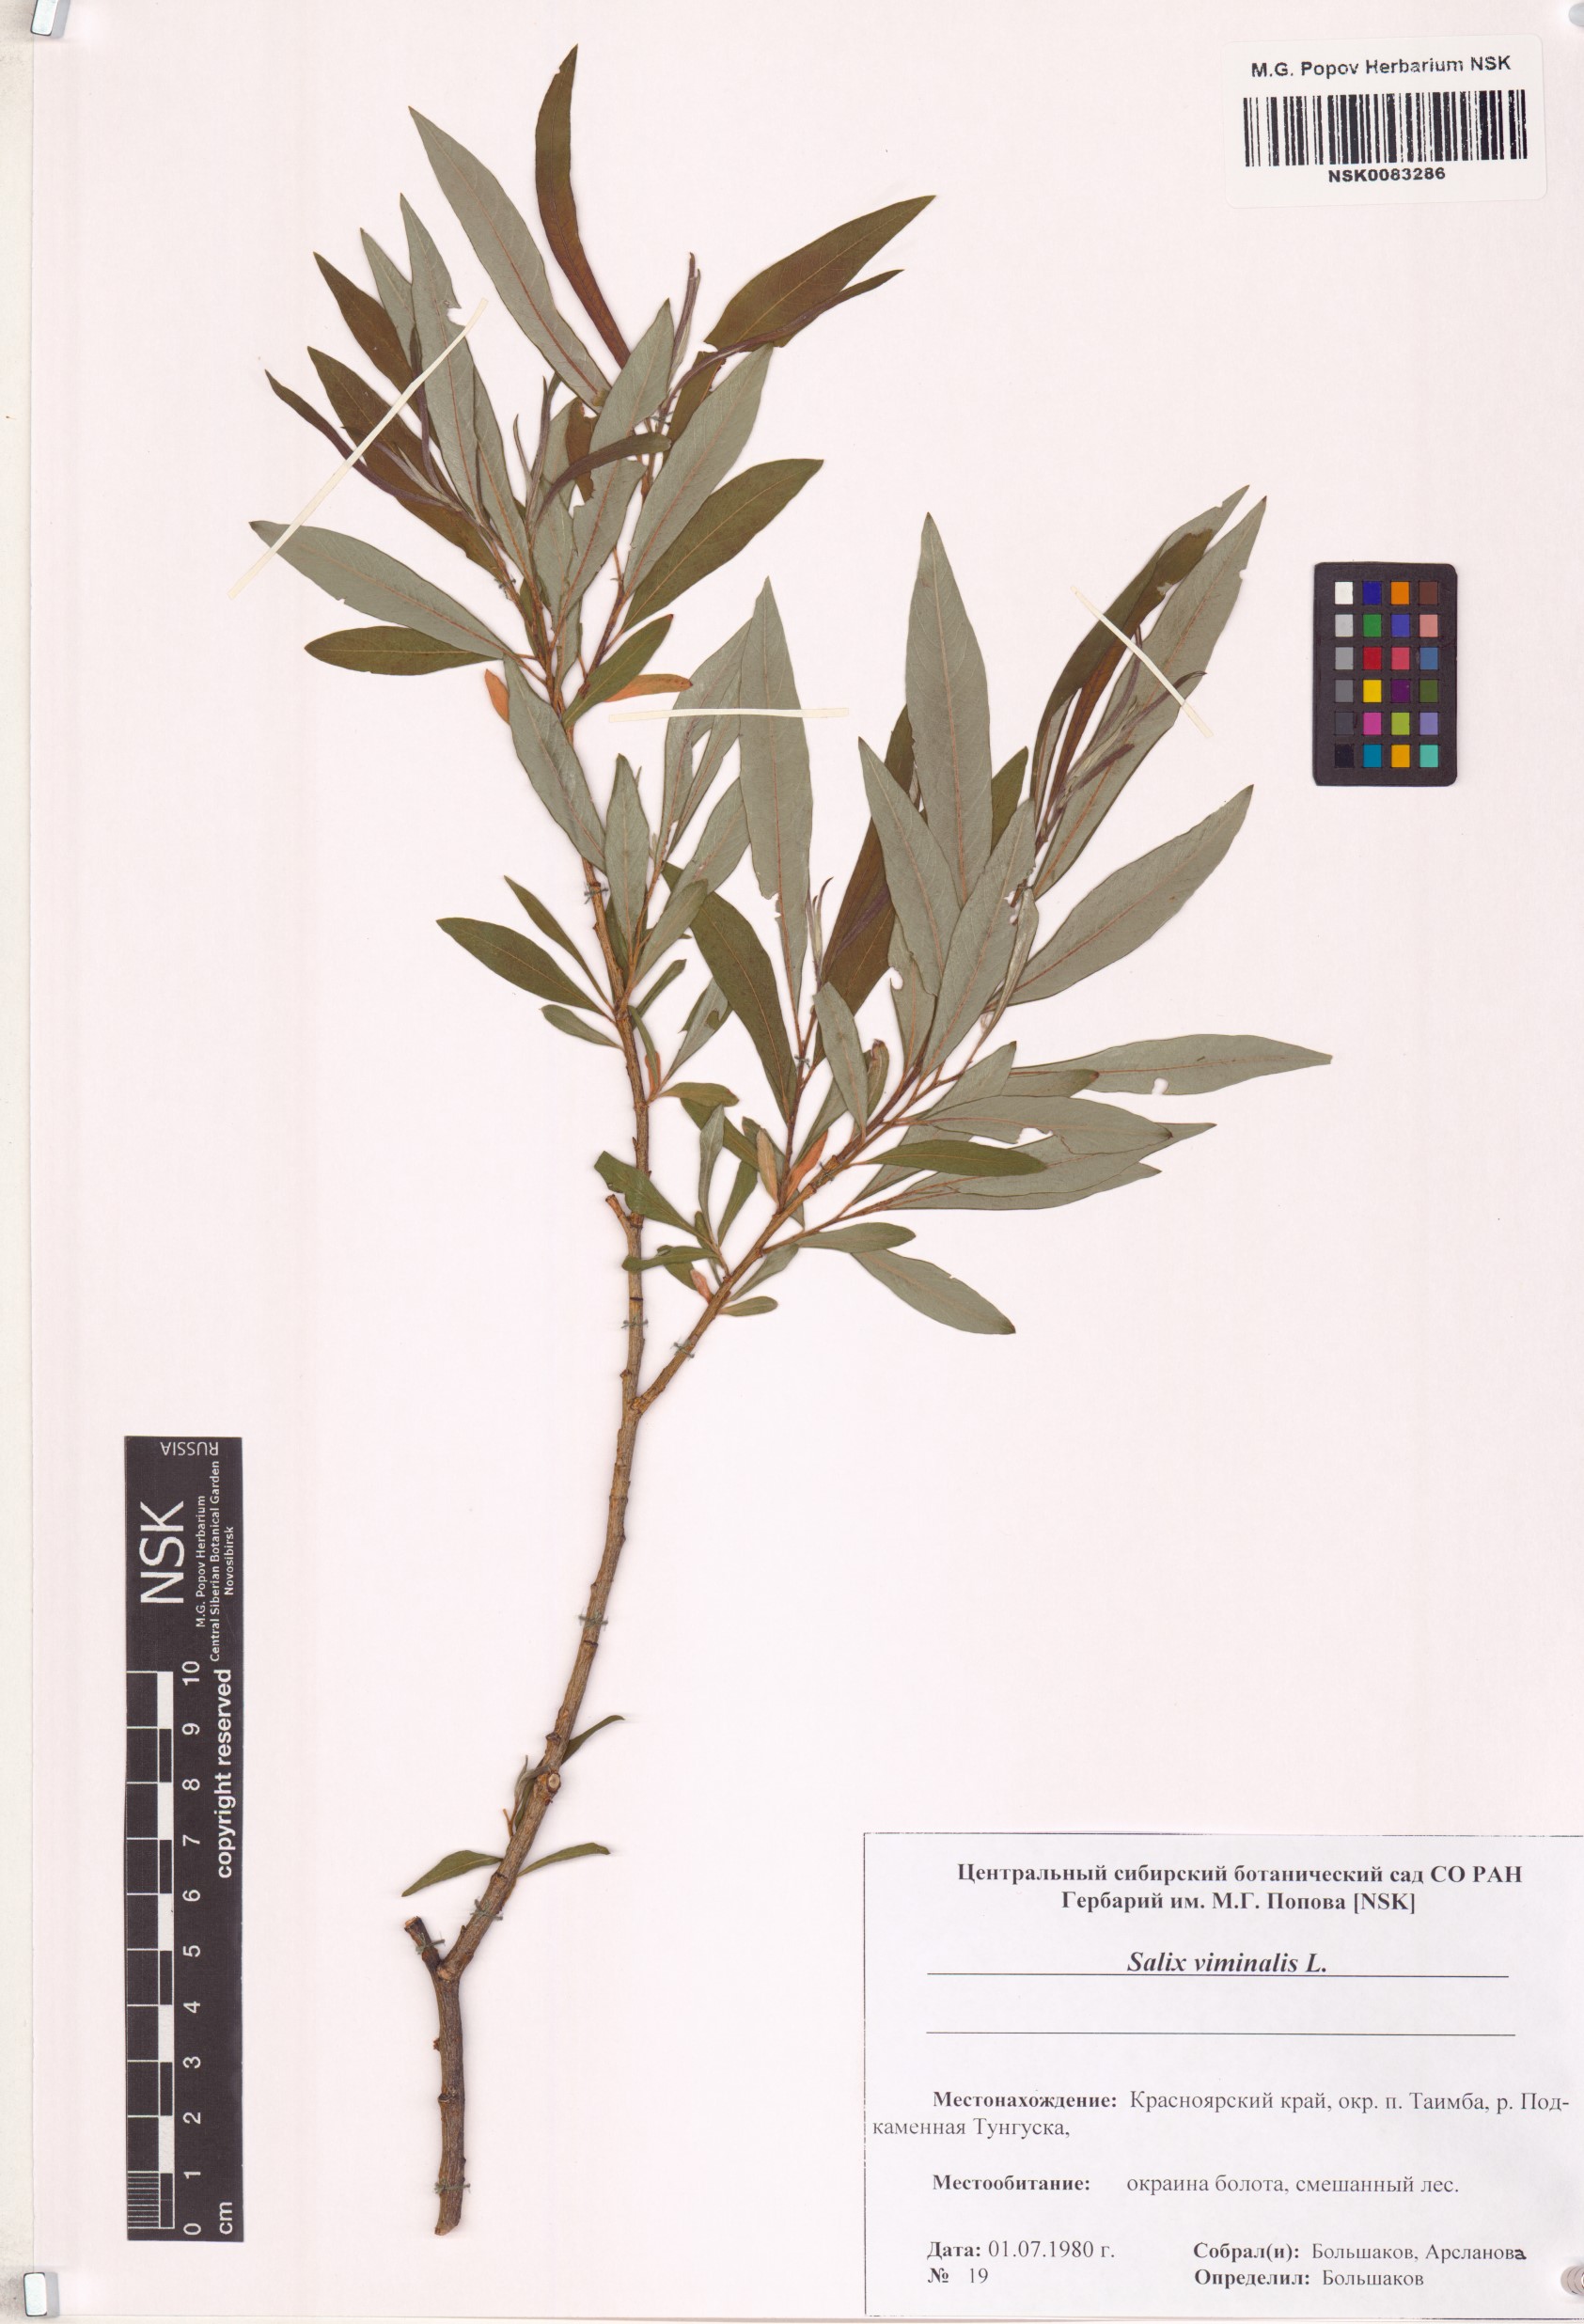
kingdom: Plantae
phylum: Tracheophyta
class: Magnoliopsida
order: Malpighiales
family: Salicaceae
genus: Salix
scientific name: Salix viminalis
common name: Osier
